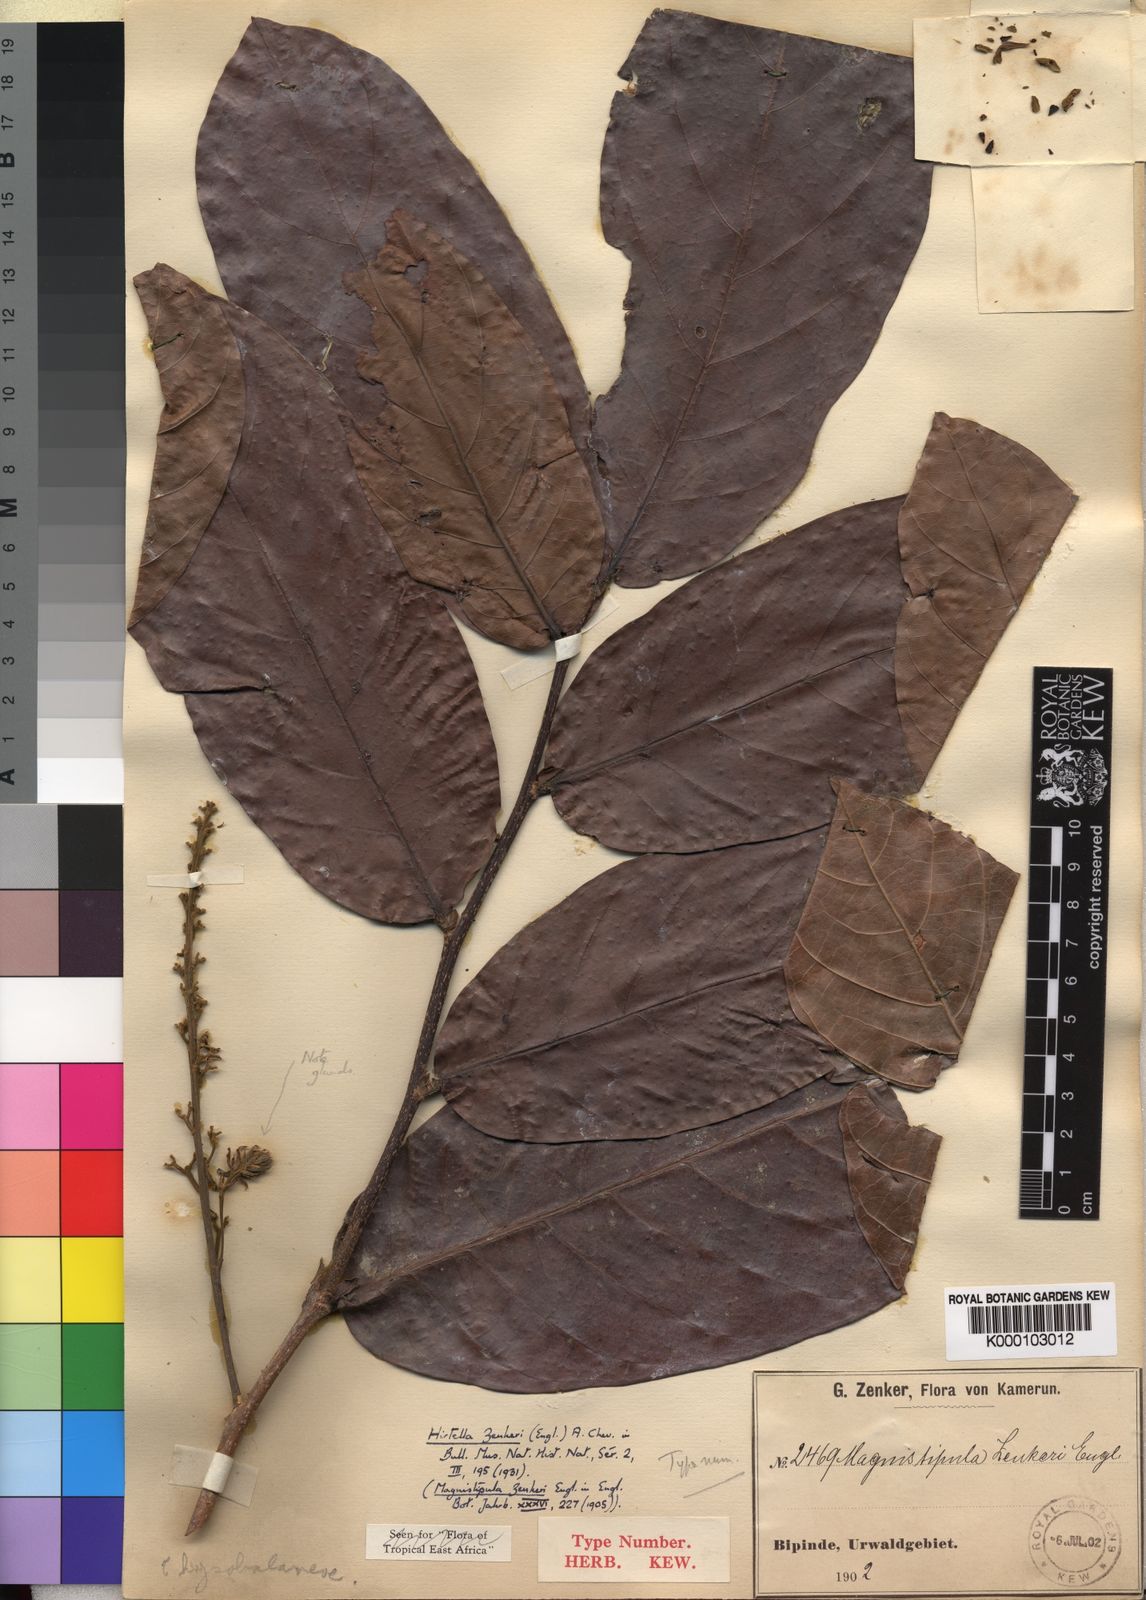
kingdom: Plantae
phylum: Tracheophyta
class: Magnoliopsida
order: Malpighiales
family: Chrysobalanaceae
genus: Magnistipula
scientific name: Magnistipula zenkeri
